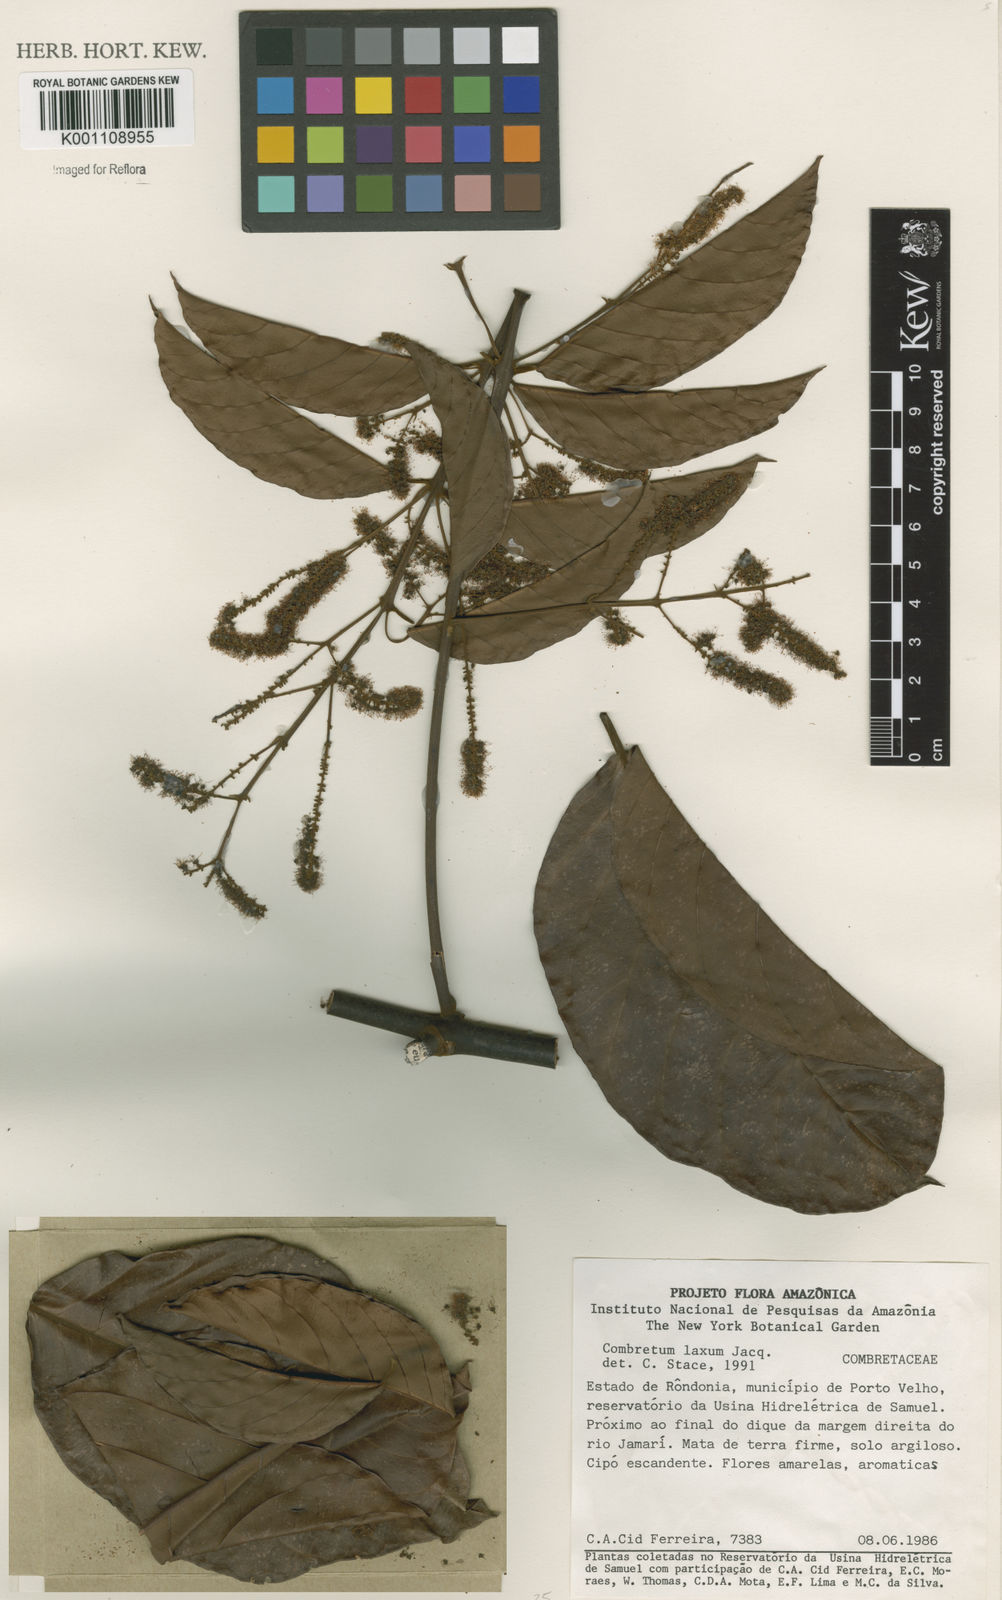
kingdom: Plantae
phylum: Tracheophyta
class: Magnoliopsida
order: Myrtales
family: Combretaceae
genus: Combretum
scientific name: Combretum laxum
